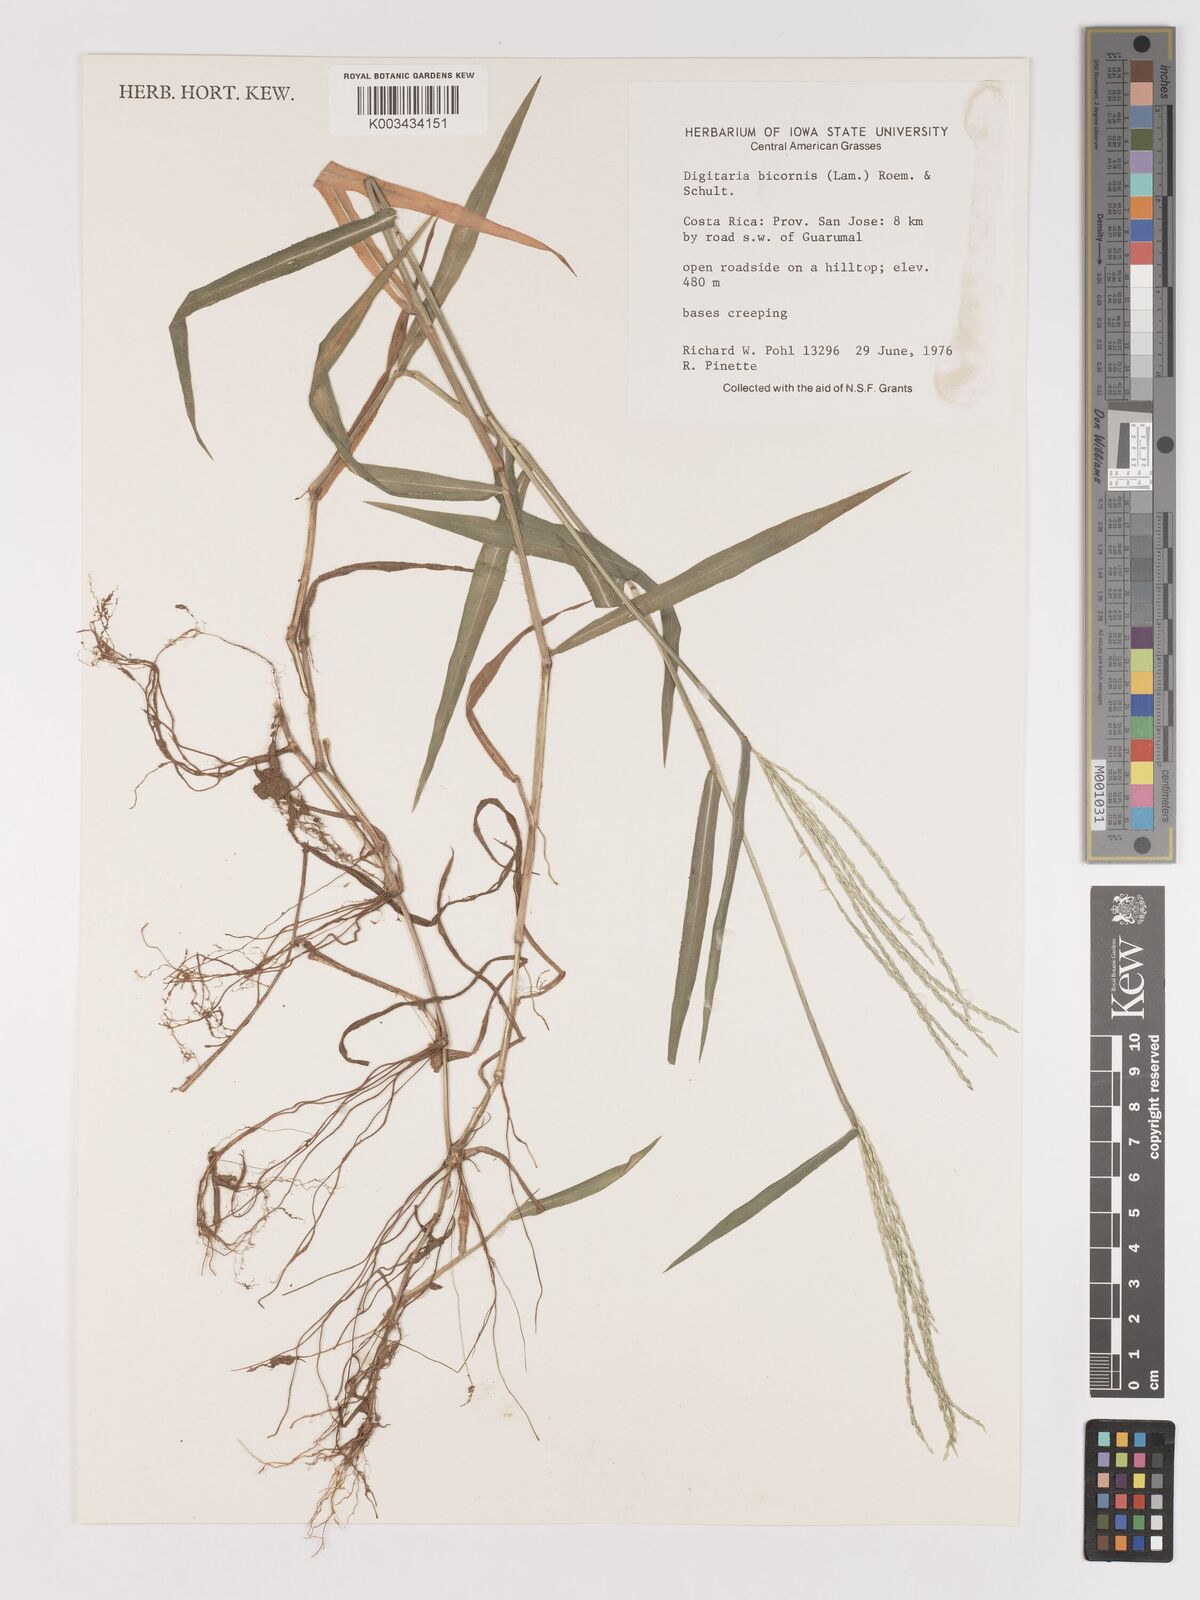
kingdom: Plantae
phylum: Tracheophyta
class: Liliopsida
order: Poales
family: Poaceae
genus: Digitaria
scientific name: Digitaria ciliaris
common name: Tropical finger-grass
